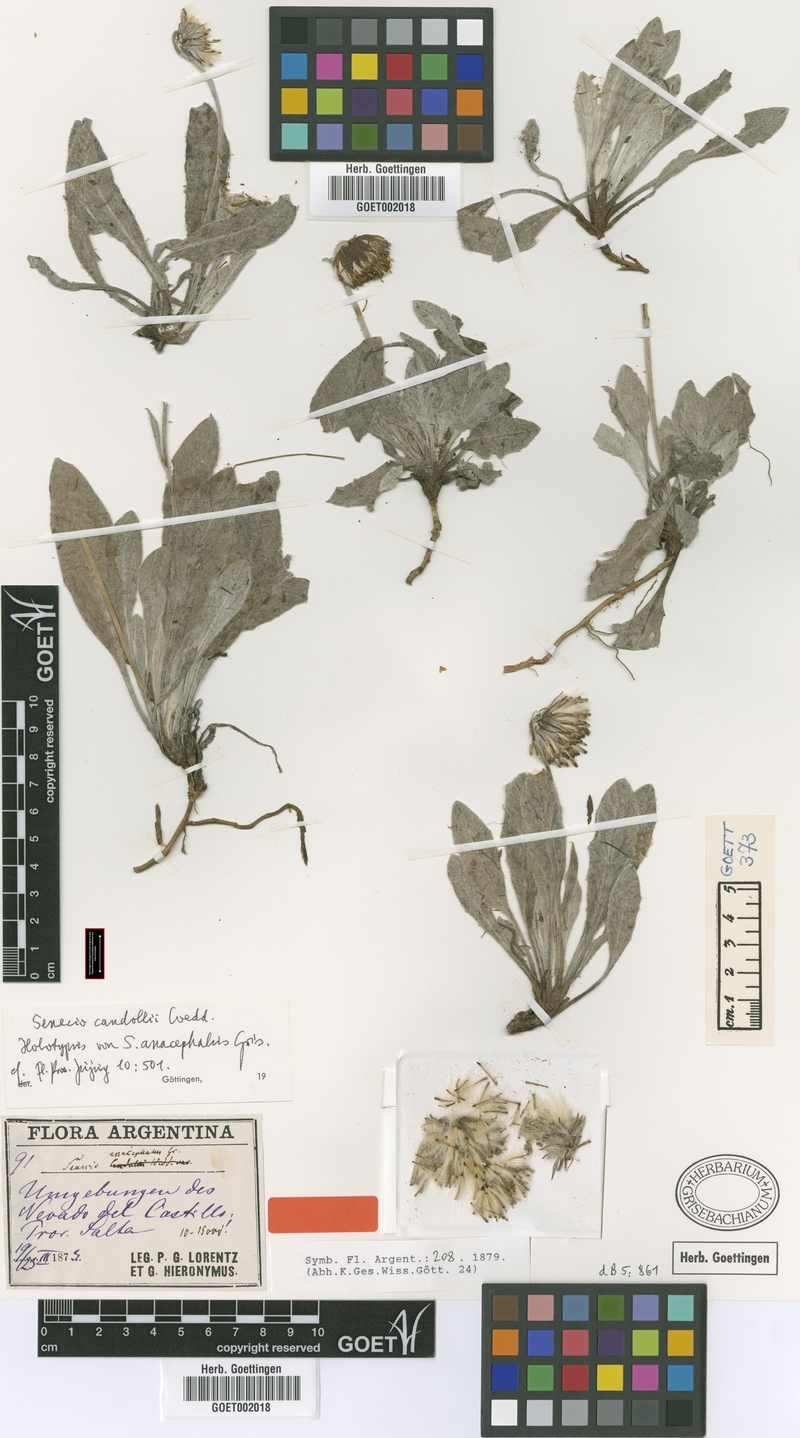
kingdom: Plantae
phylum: Tracheophyta
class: Magnoliopsida
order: Asterales
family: Asteraceae
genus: Culcitium
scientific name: Culcitium humile
